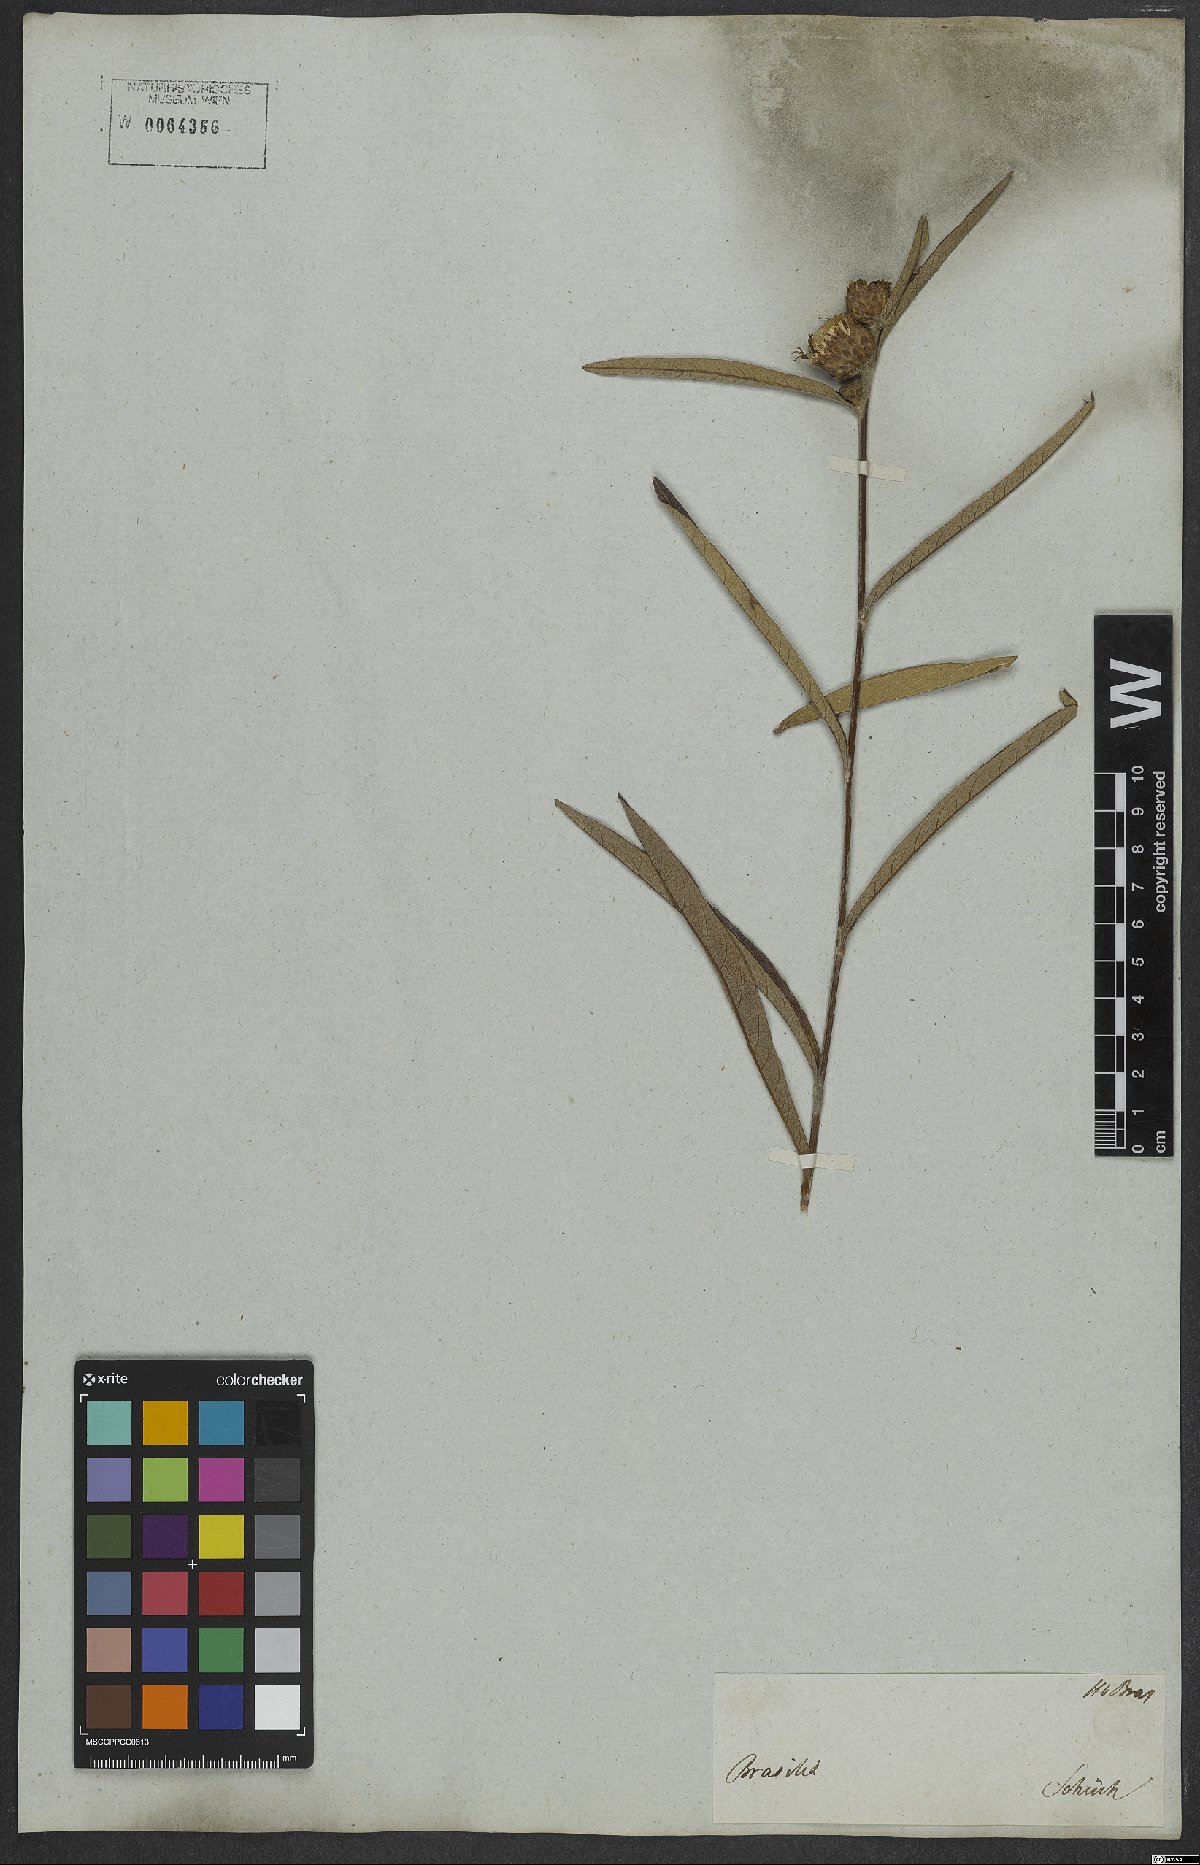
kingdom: Plantae
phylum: Tracheophyta
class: Magnoliopsida
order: Asterales
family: Asteraceae
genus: Lessingianthus
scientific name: Lessingianthus coriaceus
